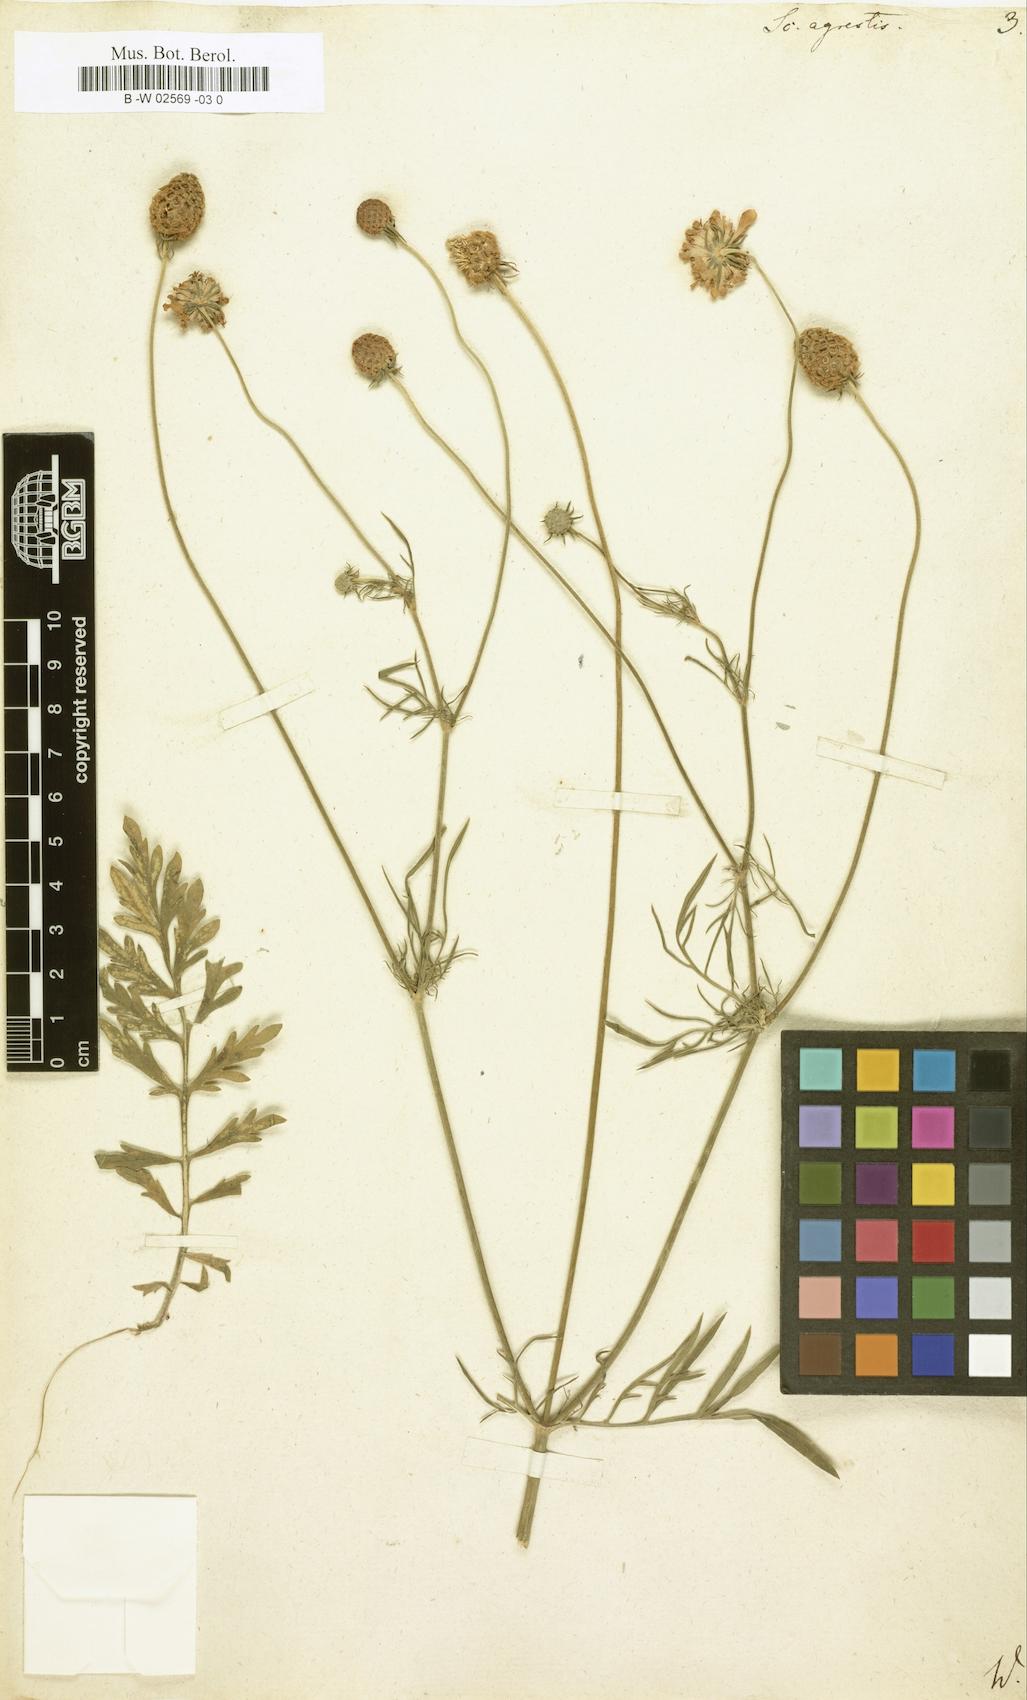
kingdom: Plantae
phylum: Tracheophyta
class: Magnoliopsida
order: Dipsacales
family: Caprifoliaceae
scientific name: Caprifoliaceae
